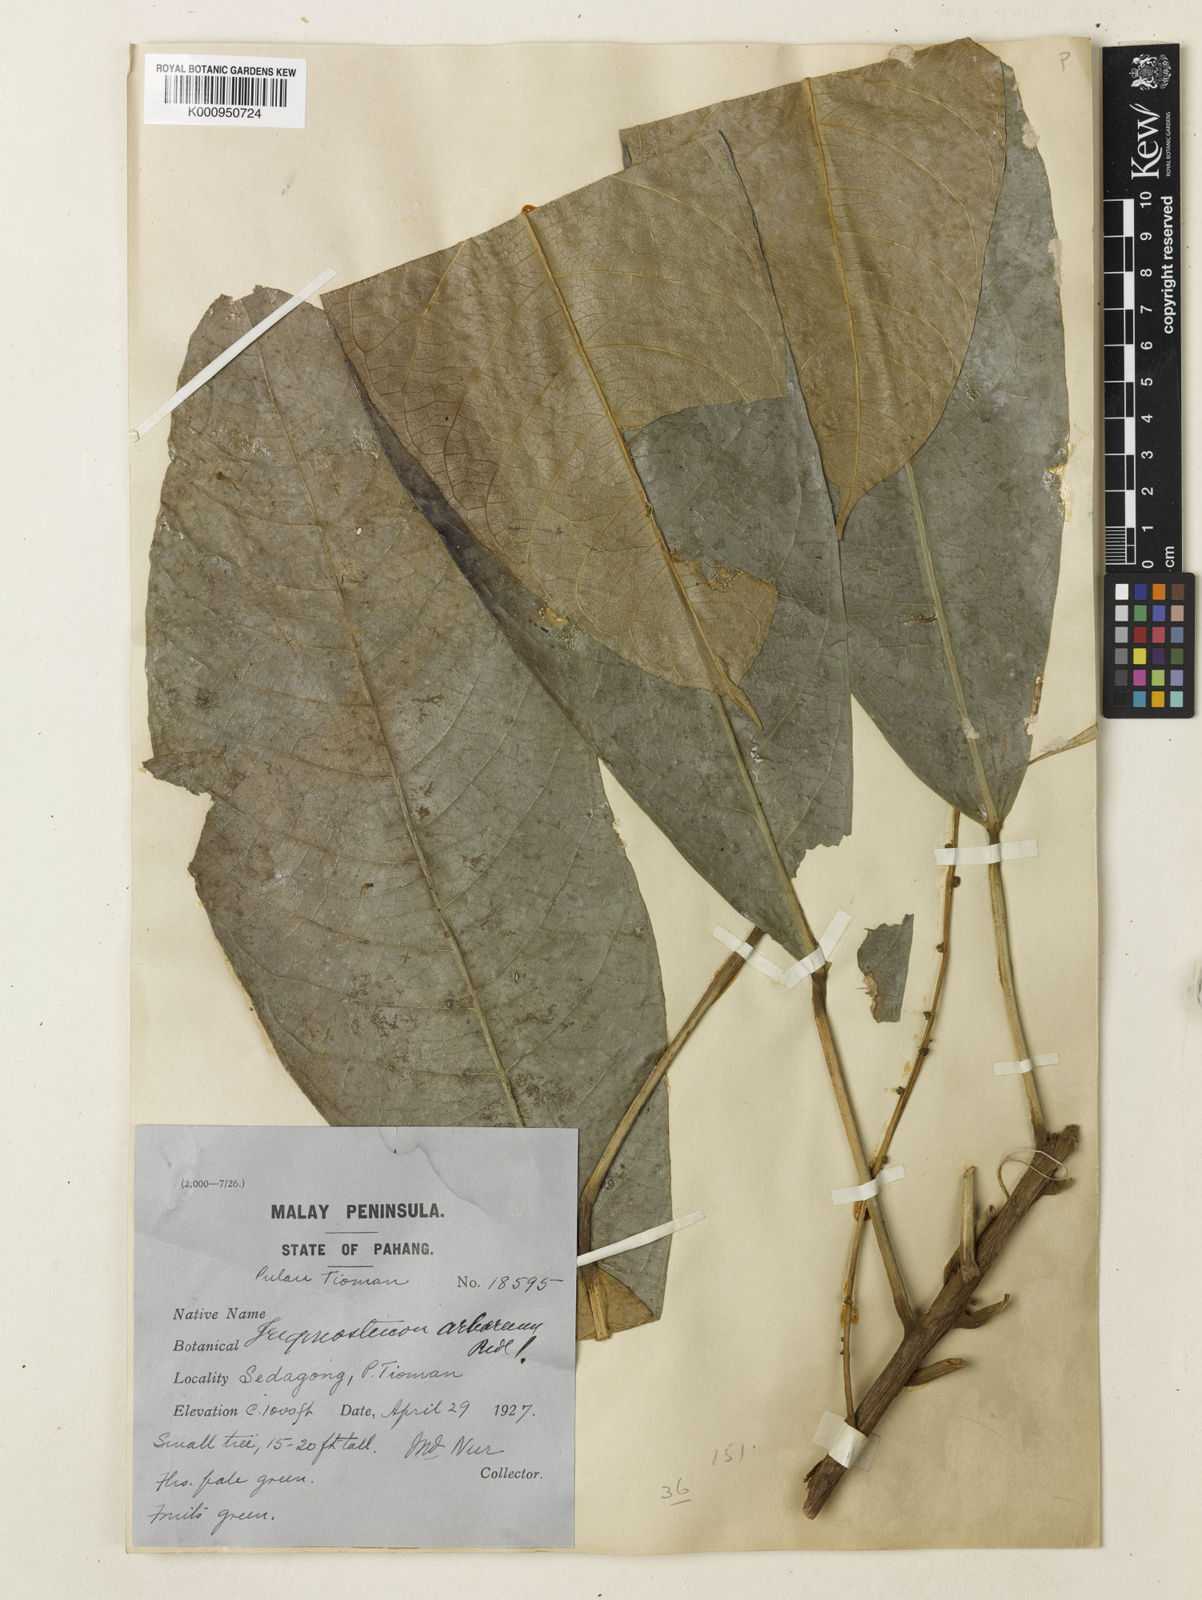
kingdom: Plantae
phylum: Tracheophyta
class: Magnoliopsida
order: Malpighiales
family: Euphorbiaceae
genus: Omphalea
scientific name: Omphalea
